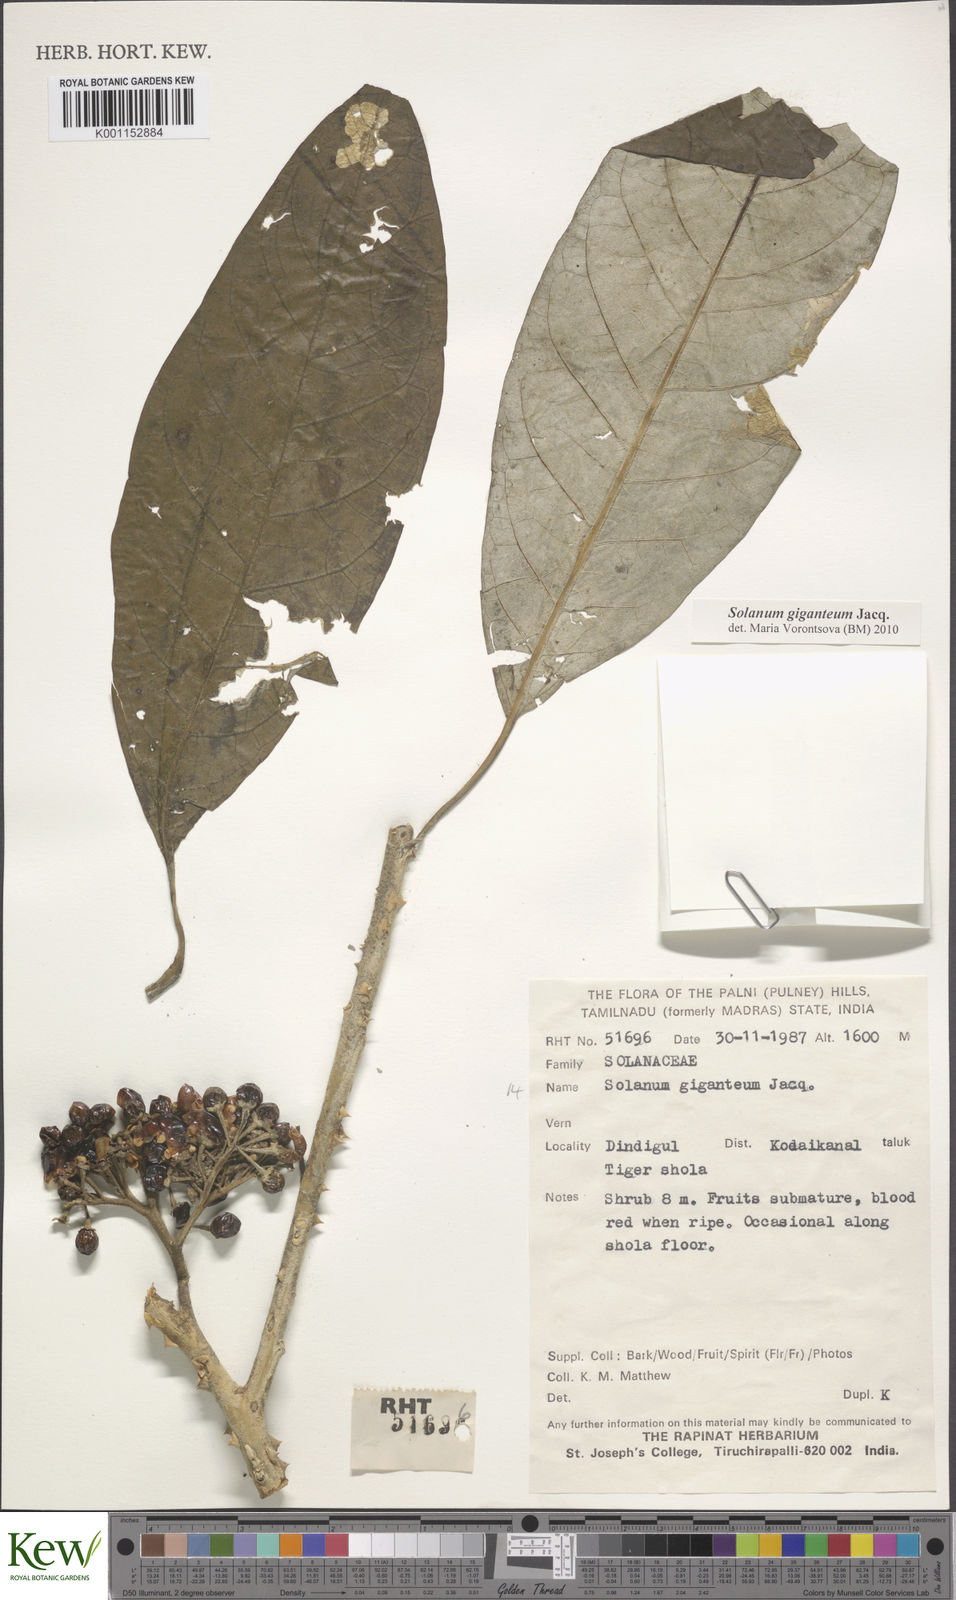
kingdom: Plantae
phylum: Tracheophyta
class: Magnoliopsida
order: Solanales
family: Solanaceae
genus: Solanum
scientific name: Solanum giganteum
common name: Healing-leaf-tree
